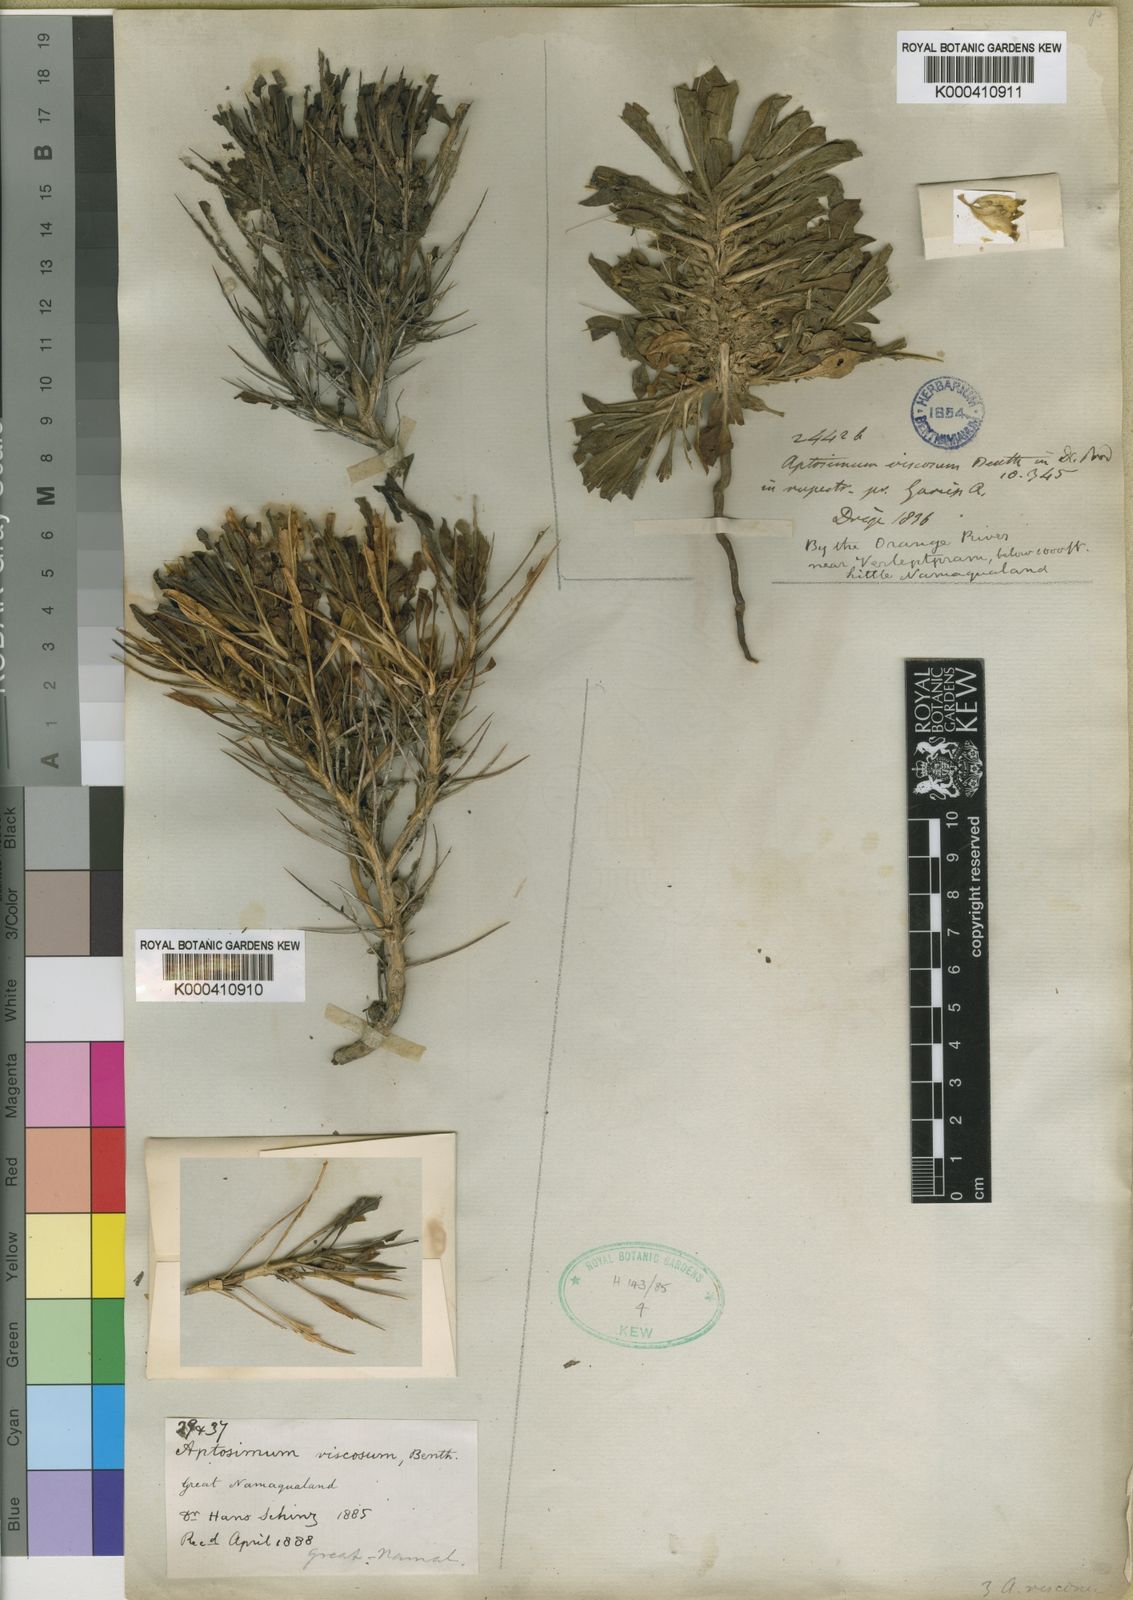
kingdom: Plantae
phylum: Tracheophyta
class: Magnoliopsida
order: Lamiales
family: Scrophulariaceae
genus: Aptosimum
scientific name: Aptosimum viscosum
